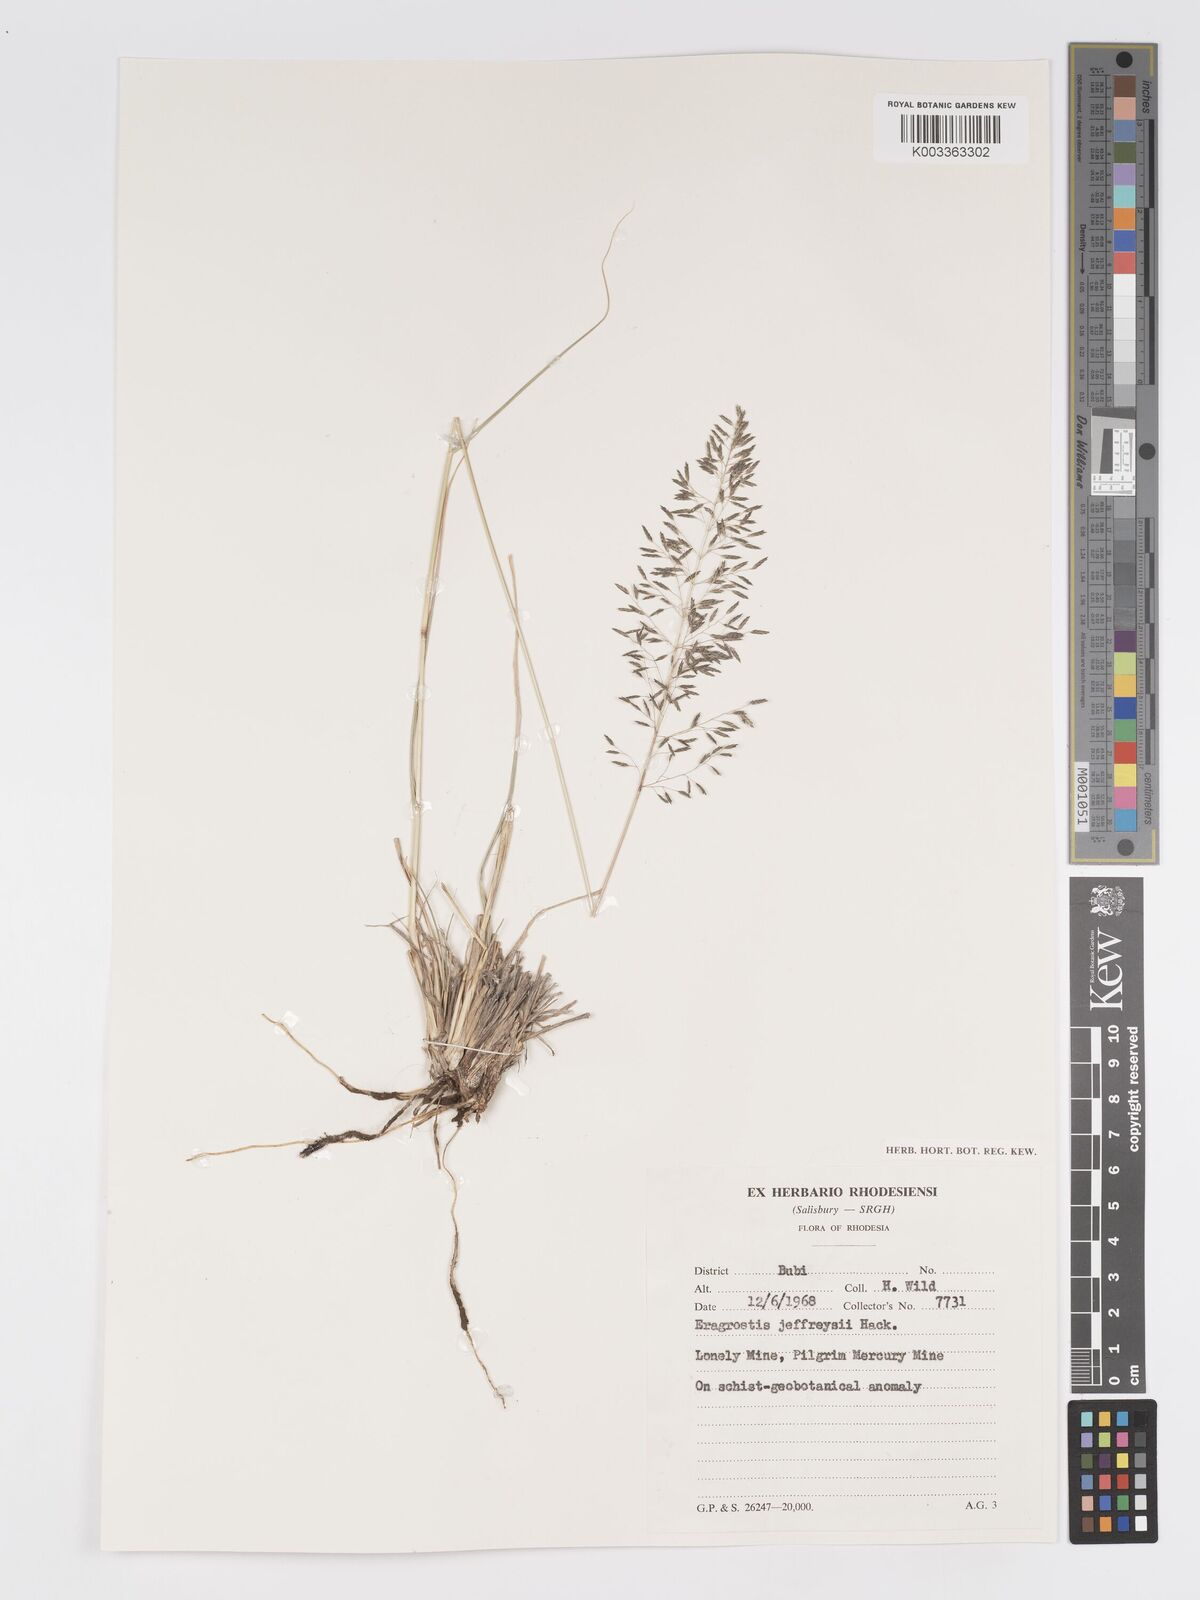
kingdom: Plantae
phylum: Tracheophyta
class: Liliopsida
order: Poales
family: Poaceae
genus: Eragrostis
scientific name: Eragrostis curvula
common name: African love-grass
